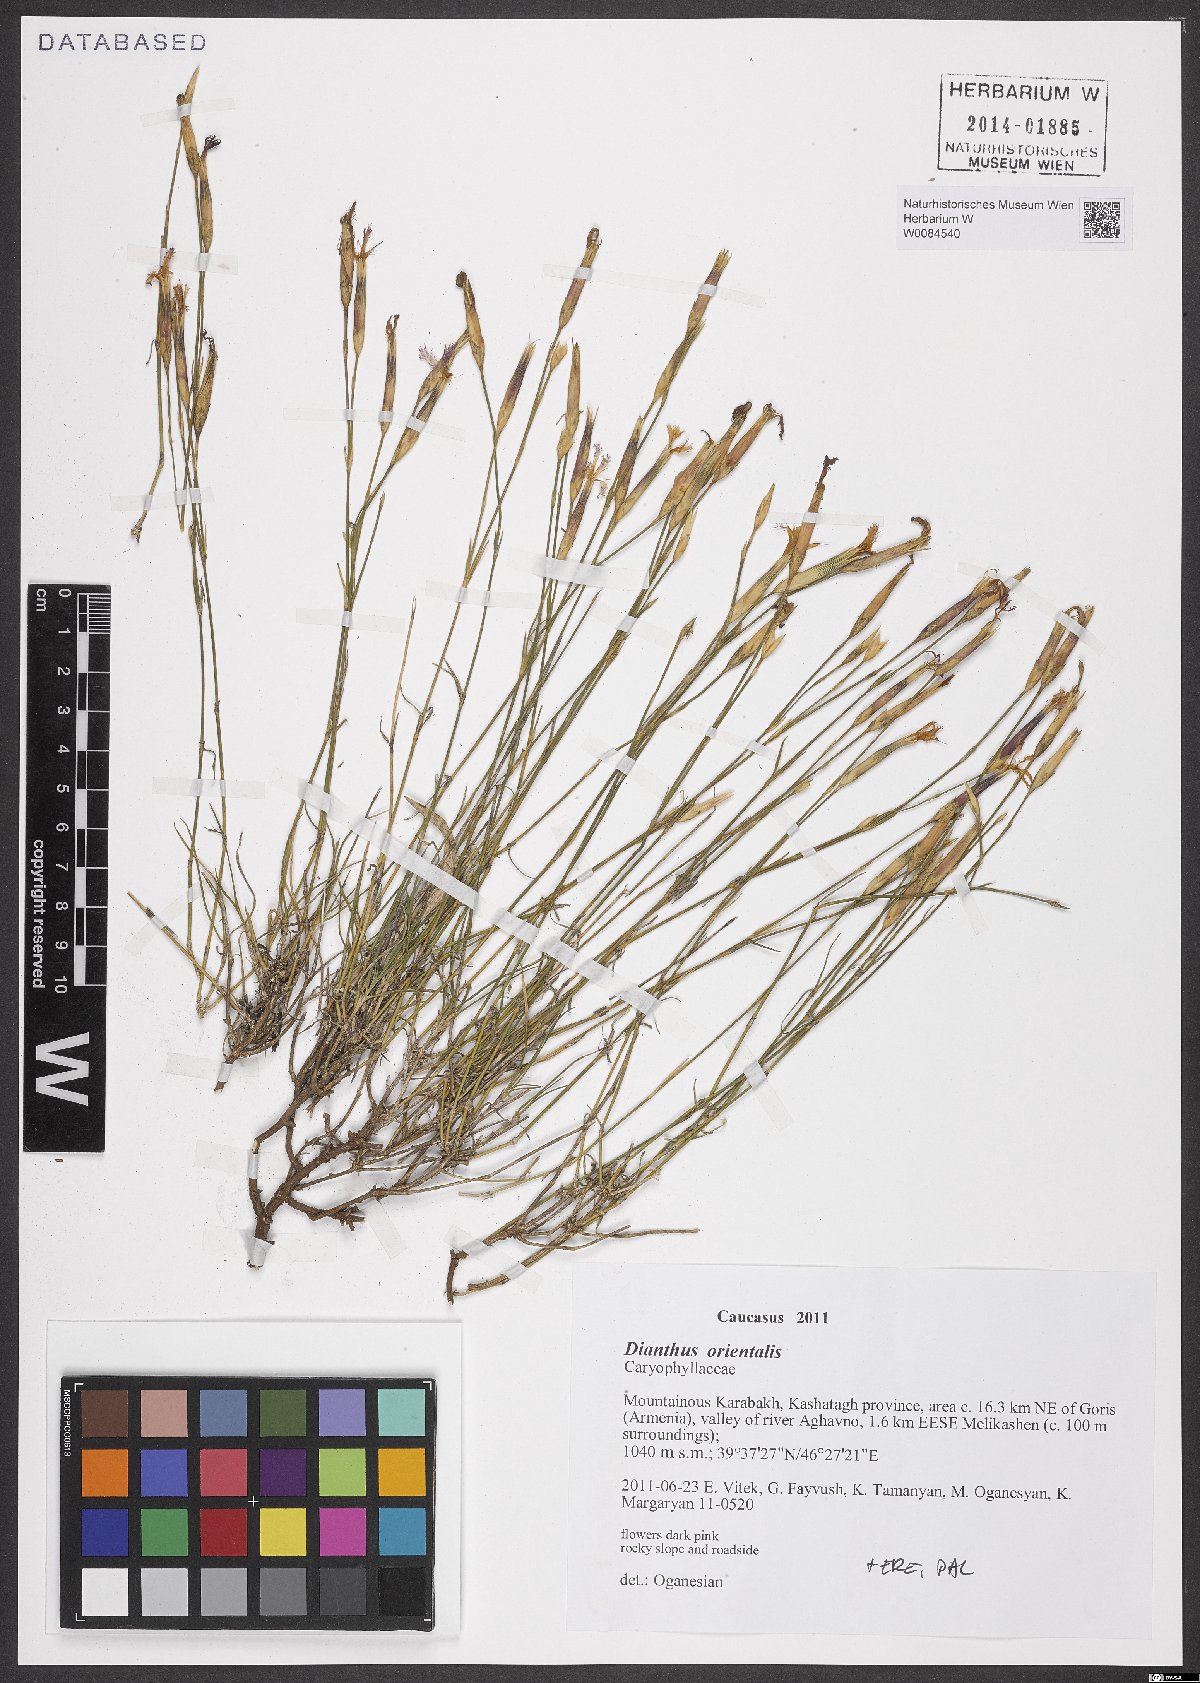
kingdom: Plantae
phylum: Tracheophyta
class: Magnoliopsida
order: Caryophyllales
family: Caryophyllaceae
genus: Dianthus
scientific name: Dianthus orientalis
